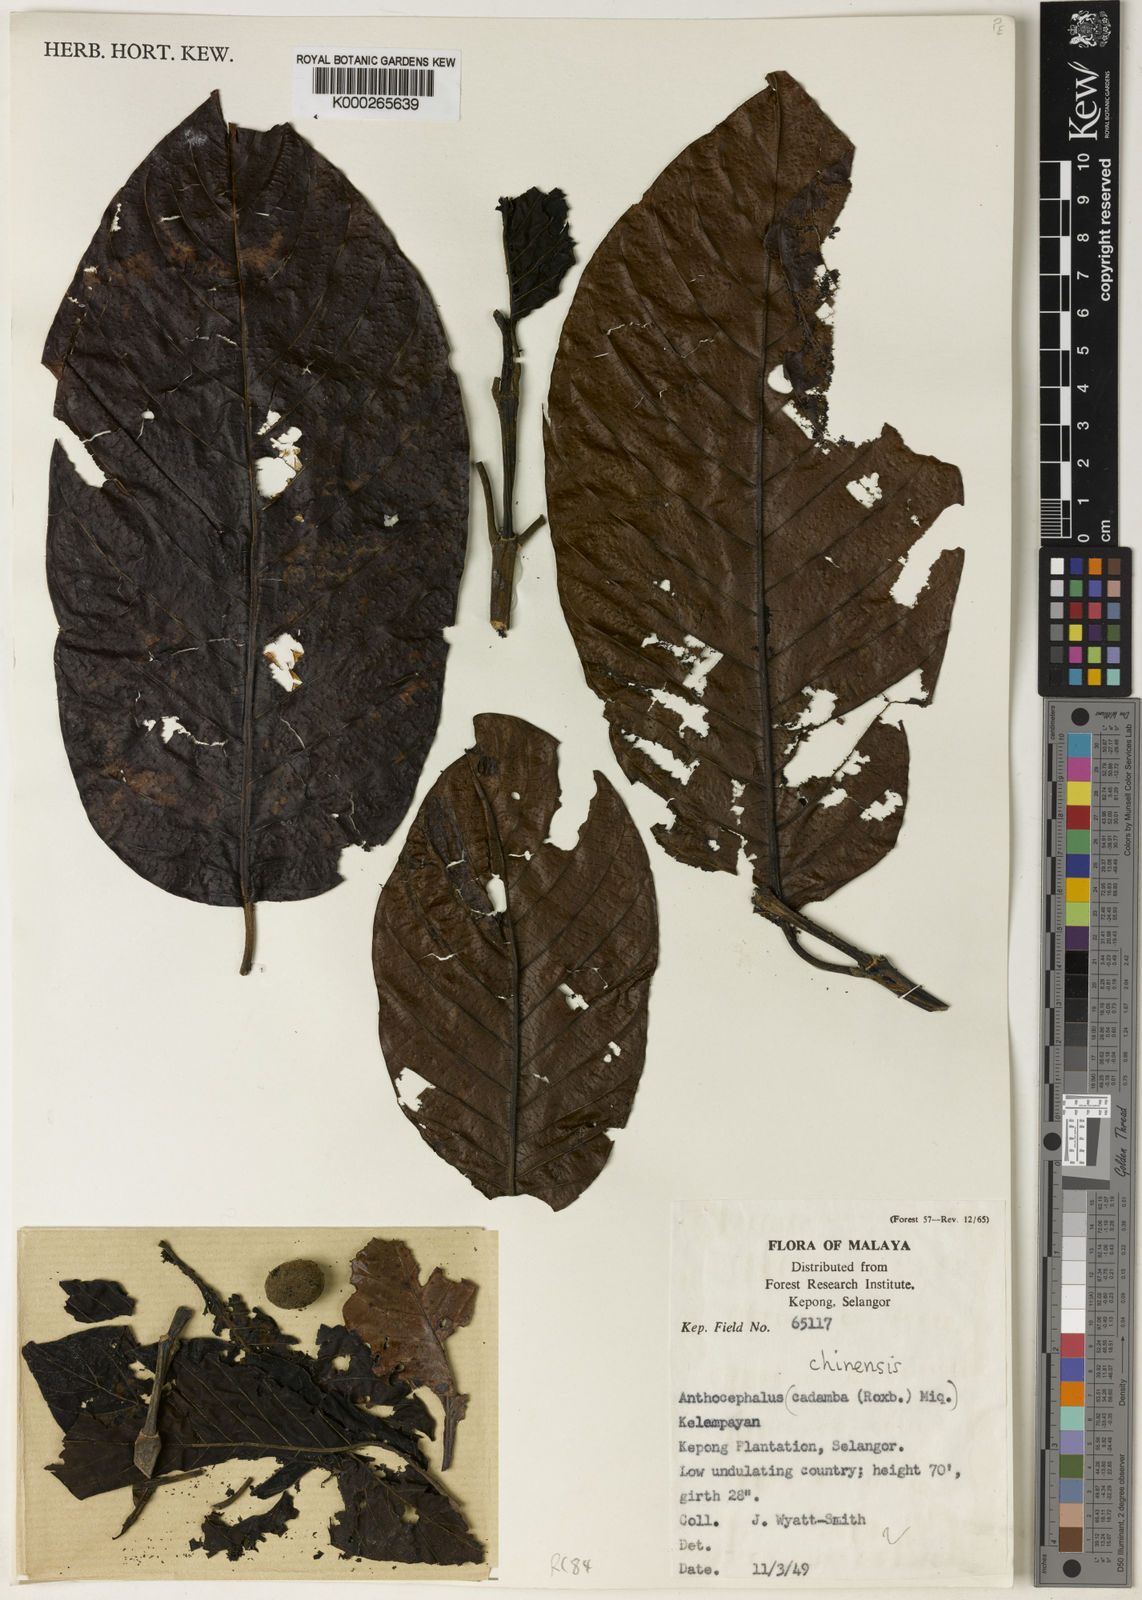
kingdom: Plantae
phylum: Tracheophyta
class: Magnoliopsida
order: Gentianales
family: Rubiaceae
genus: Neolamarckia
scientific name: Neolamarckia cadamba
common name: Leichhardt-pine
